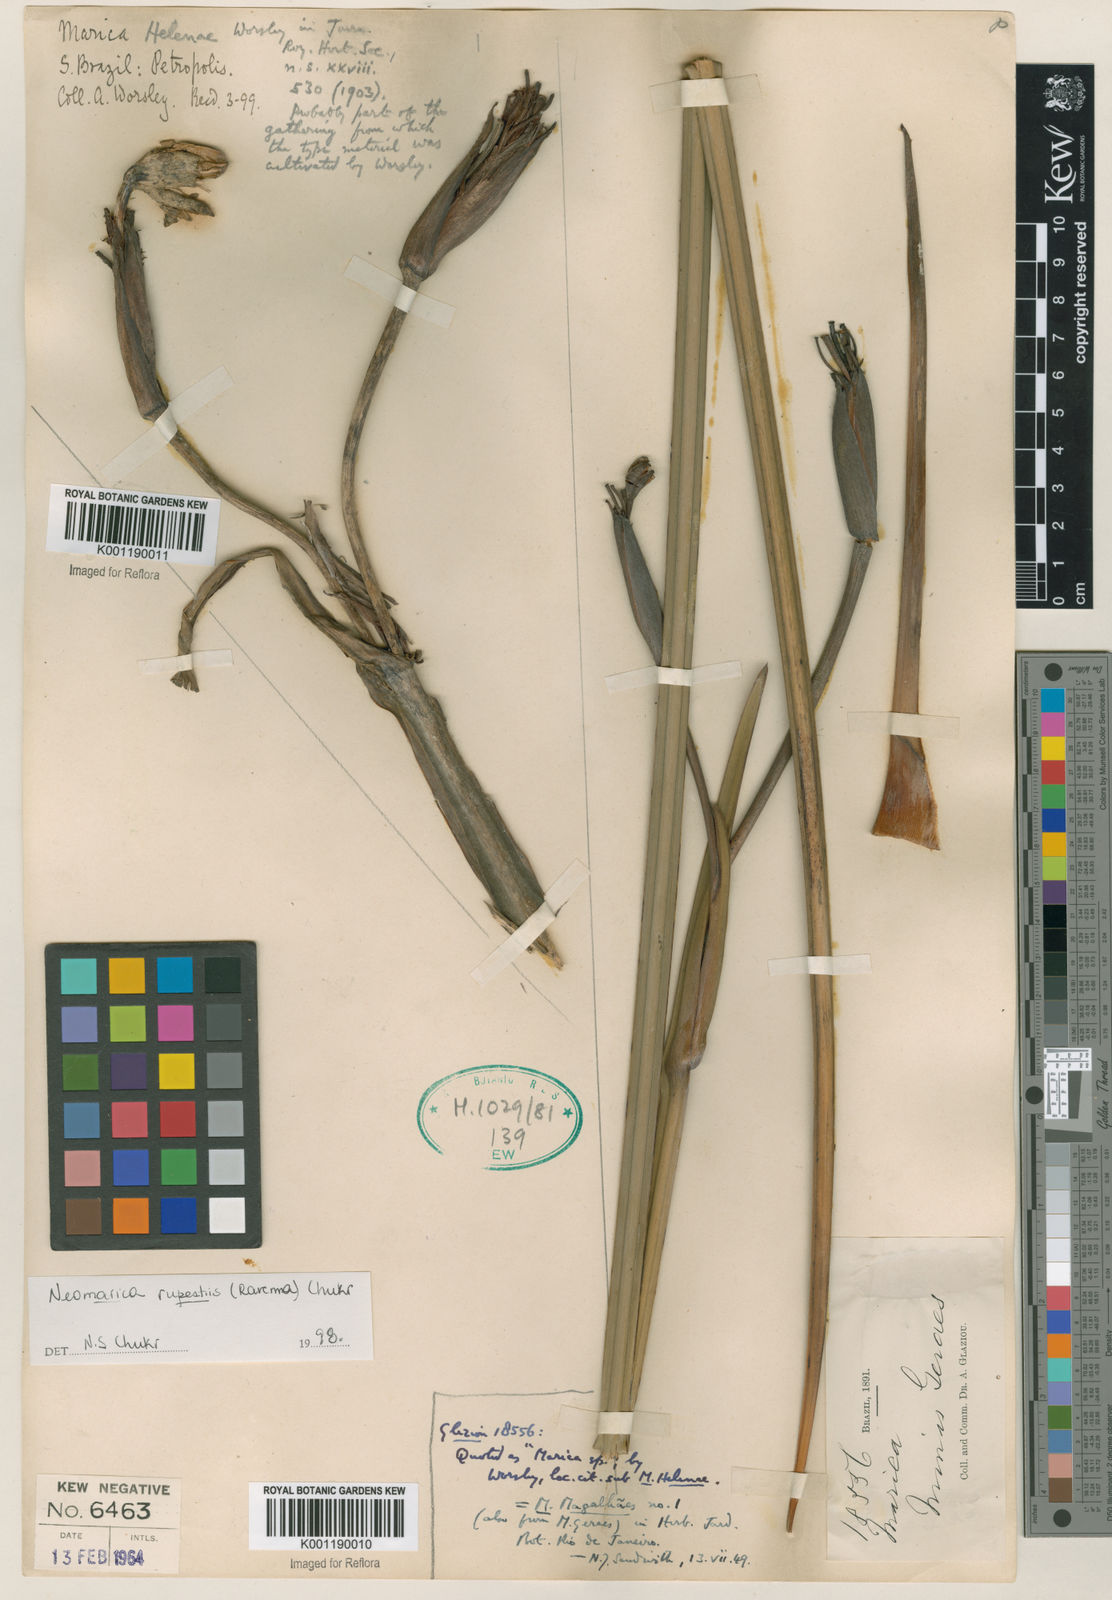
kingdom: Plantae
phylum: Tracheophyta
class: Liliopsida
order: Asparagales
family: Iridaceae
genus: Trimezia
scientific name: Trimezia rupestris
